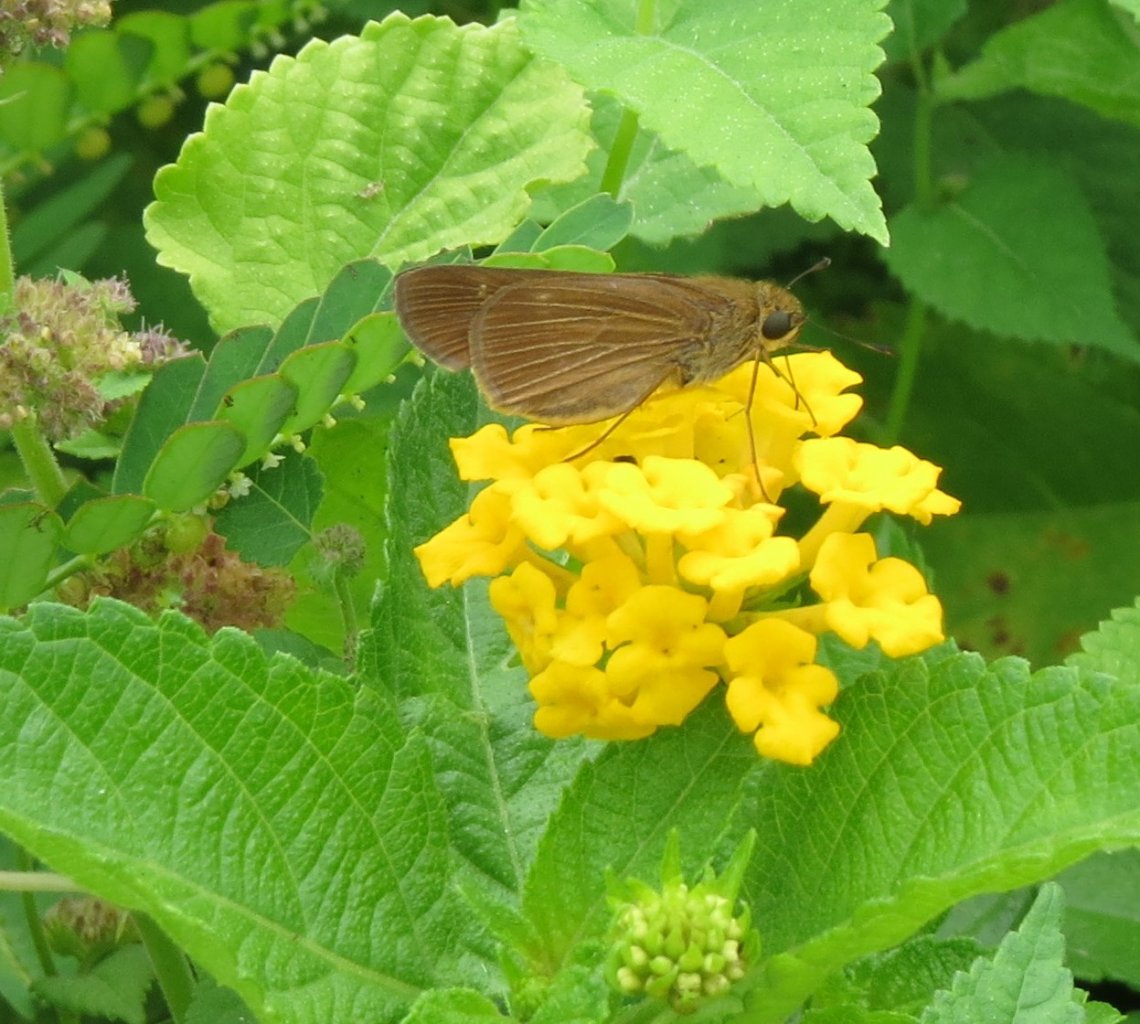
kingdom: Animalia
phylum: Arthropoda
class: Insecta
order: Lepidoptera
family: Hesperiidae
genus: Panoquina
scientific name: Panoquina ocola
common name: Ocola Skipper
